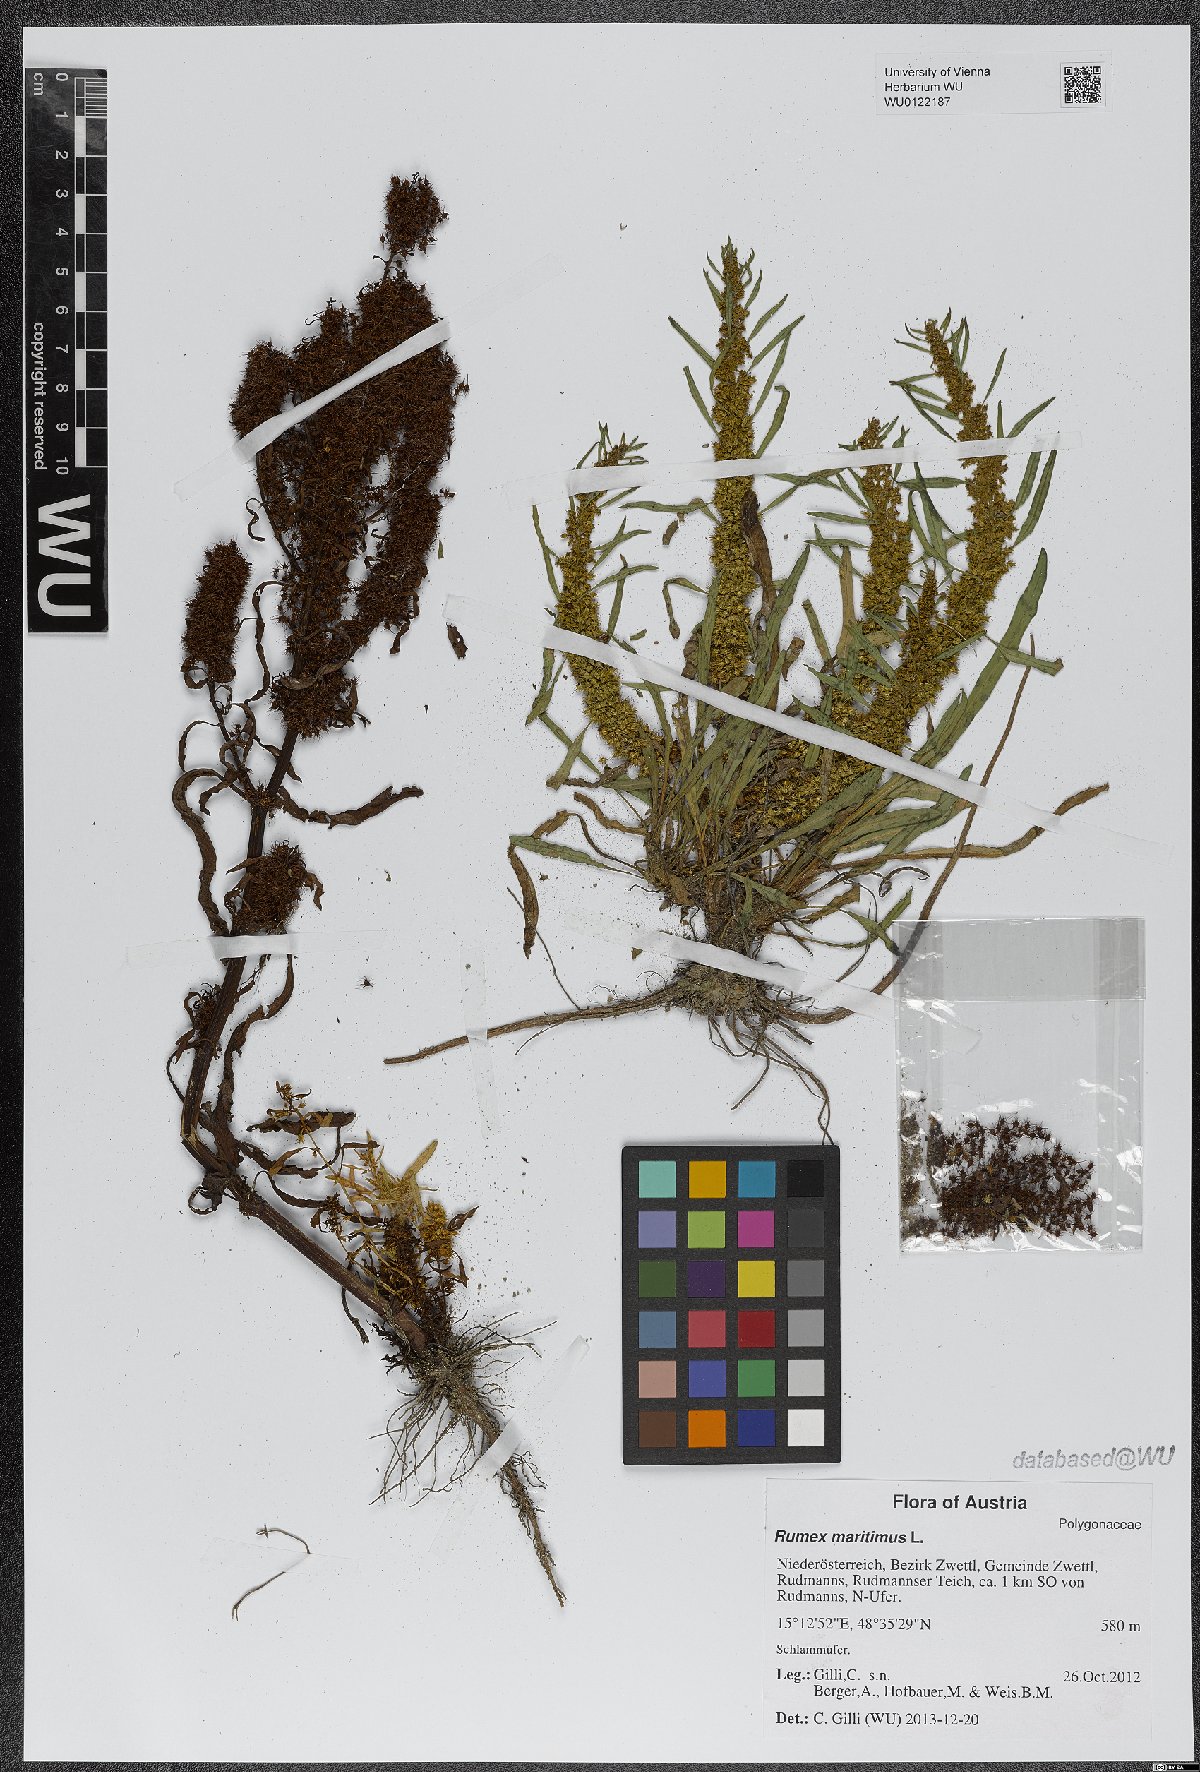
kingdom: Plantae
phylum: Tracheophyta
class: Magnoliopsida
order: Caryophyllales
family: Polygonaceae
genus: Rumex
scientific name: Rumex maritimus
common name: Golden dock
